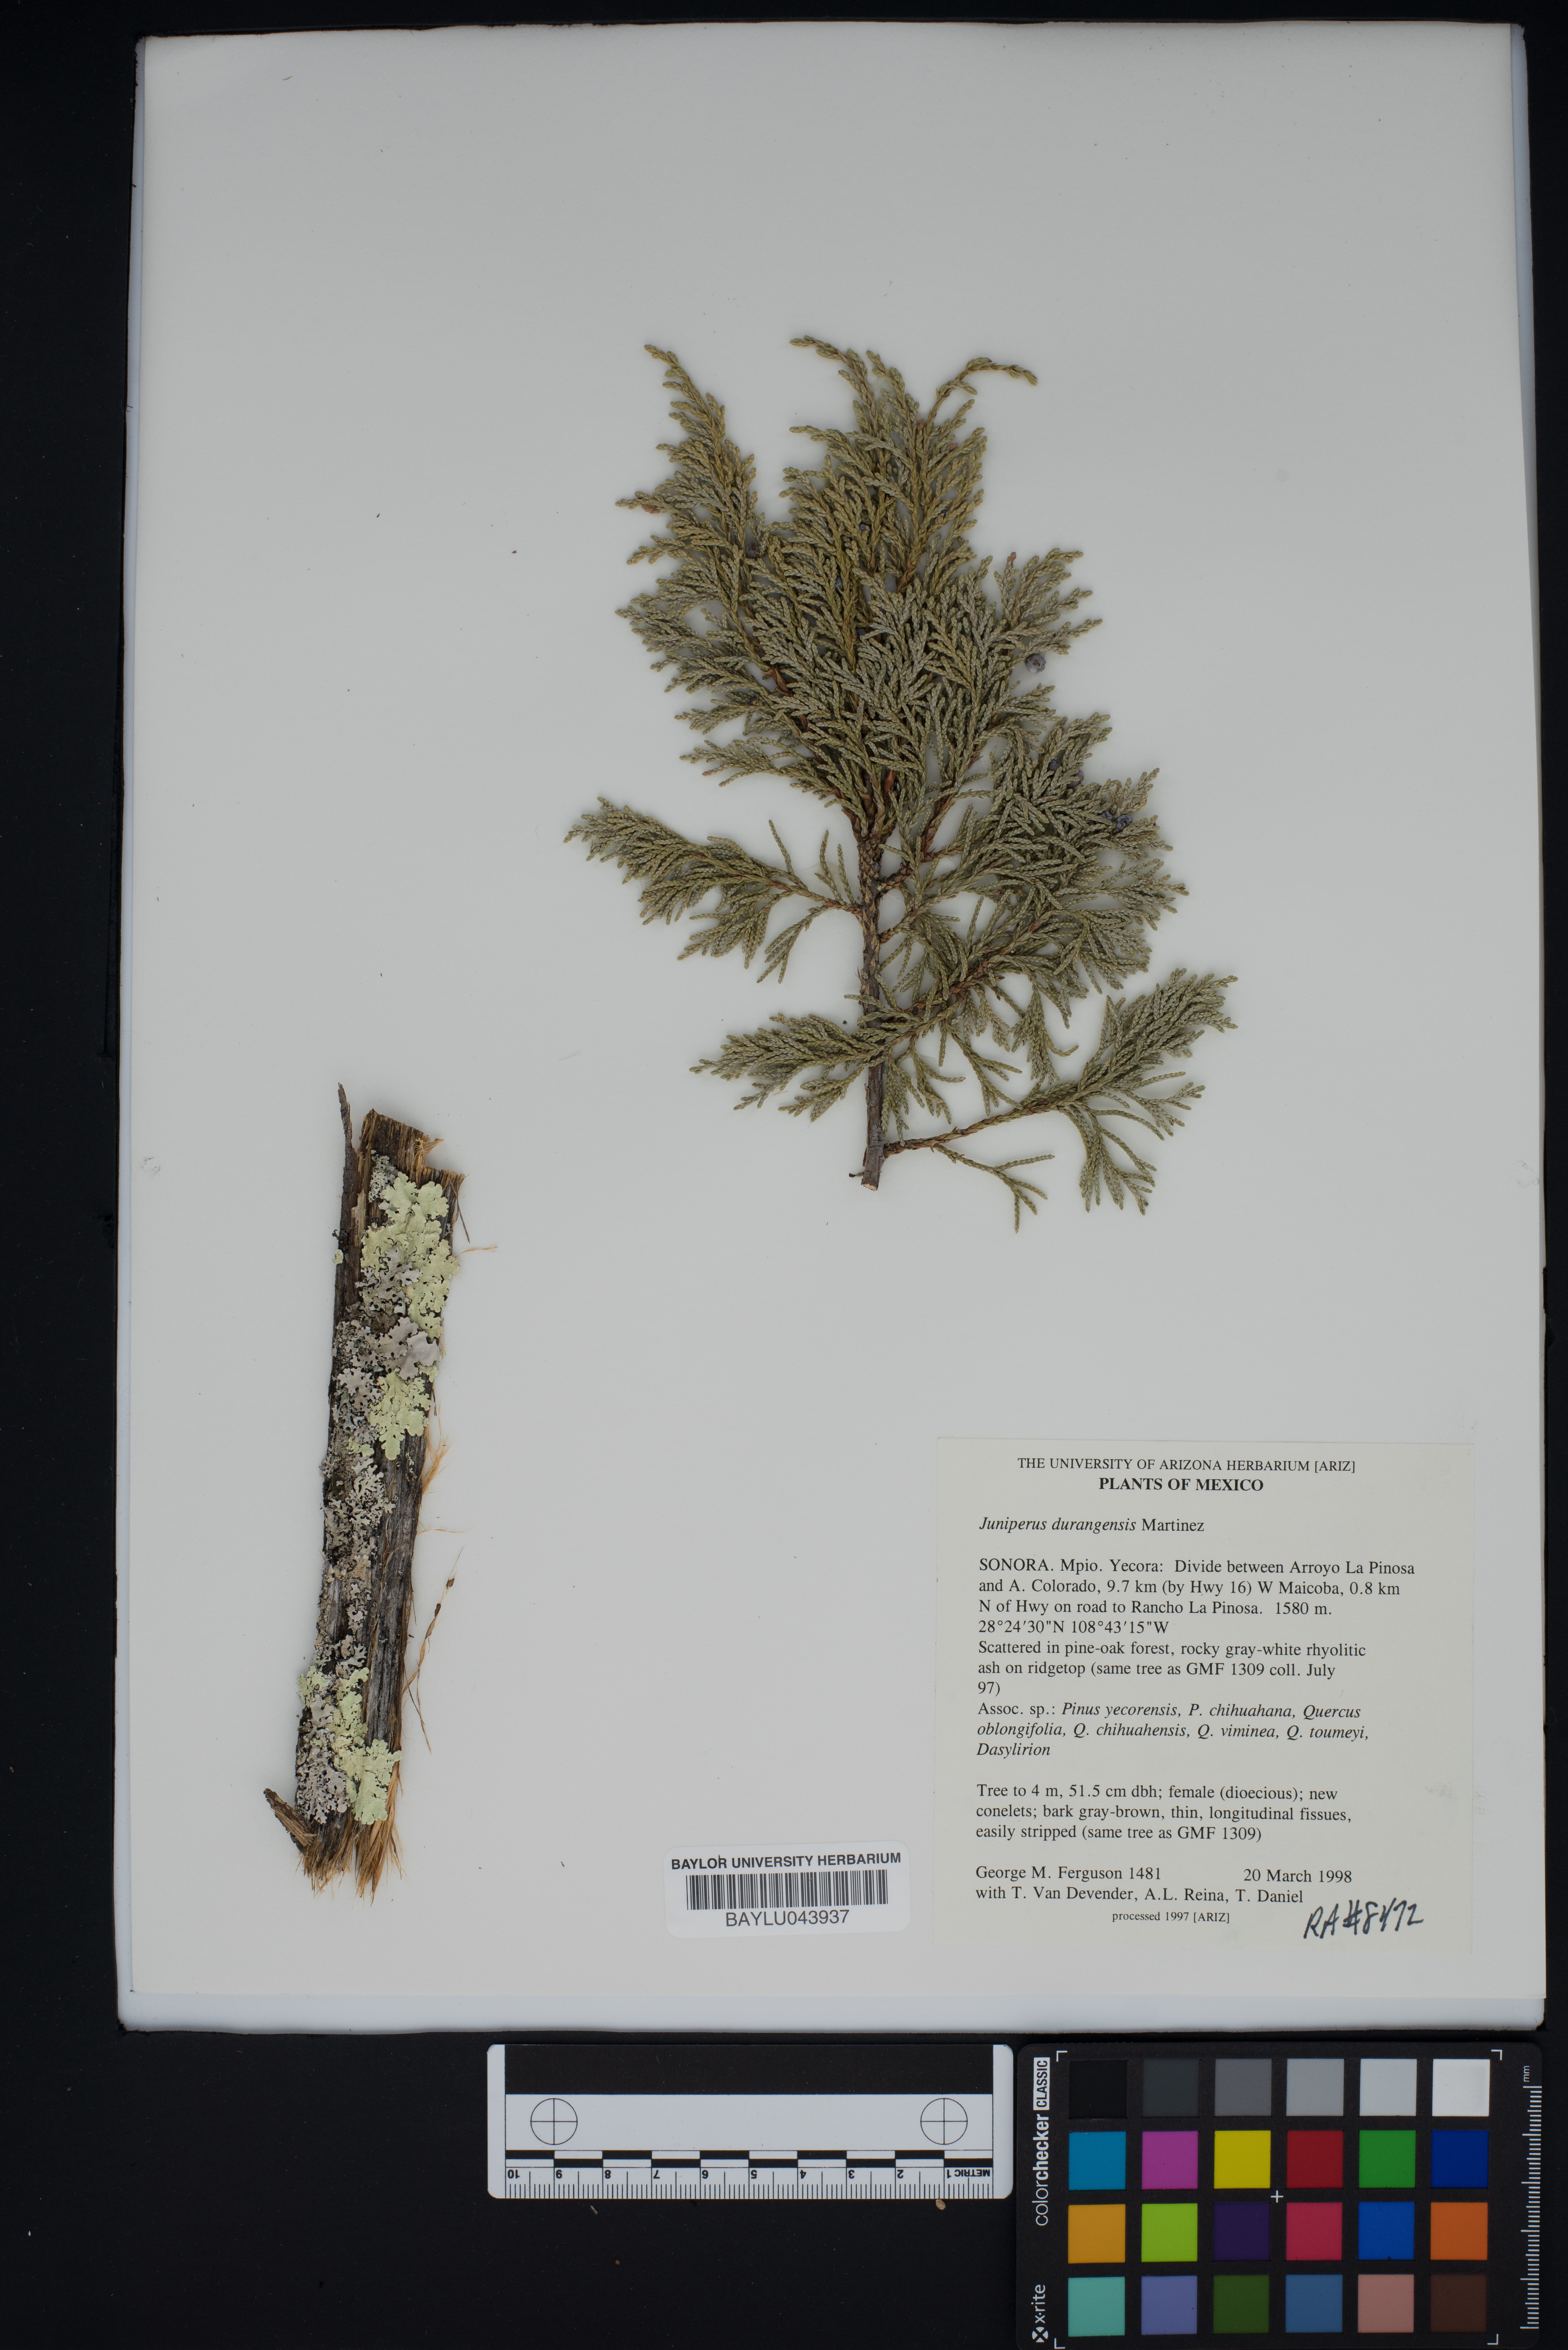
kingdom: Plantae
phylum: Tracheophyta
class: Pinopsida
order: Pinales
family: Cupressaceae
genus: Juniperus
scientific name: Juniperus durangensis
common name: Durango juniper
